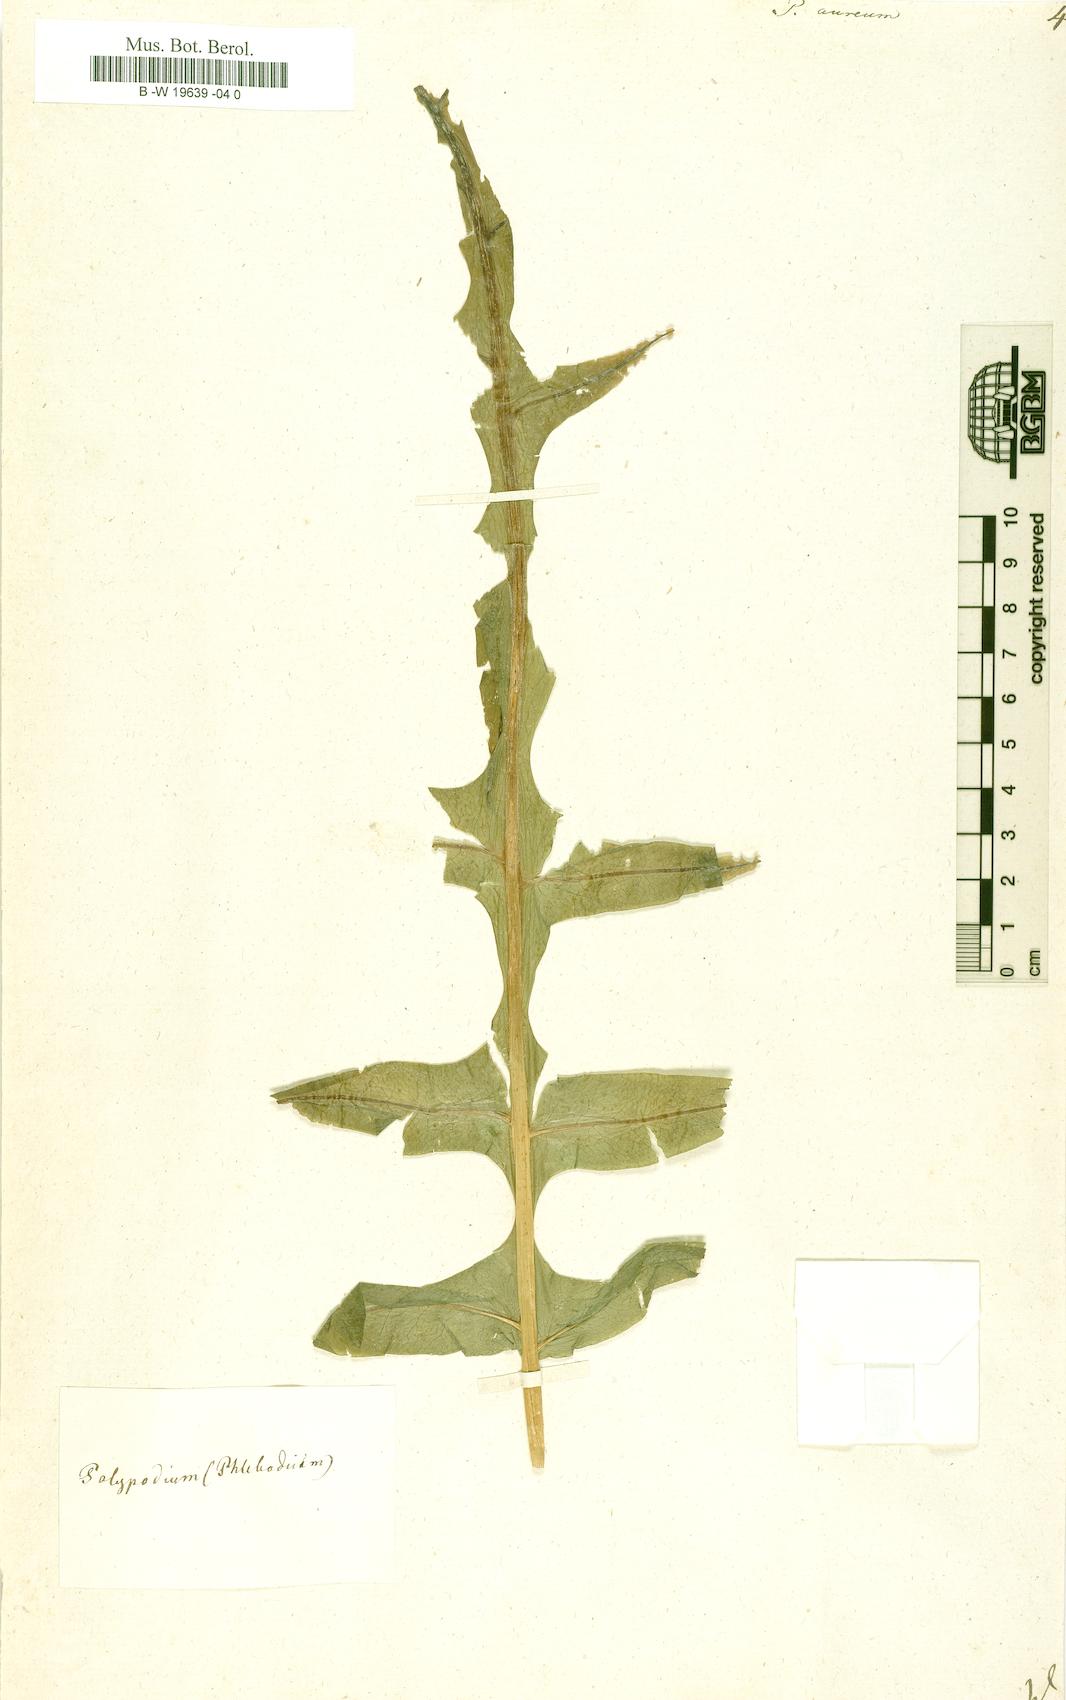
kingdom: Plantae
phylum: Tracheophyta
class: Polypodiopsida
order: Polypodiales
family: Polypodiaceae
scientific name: Polypodiaceae
